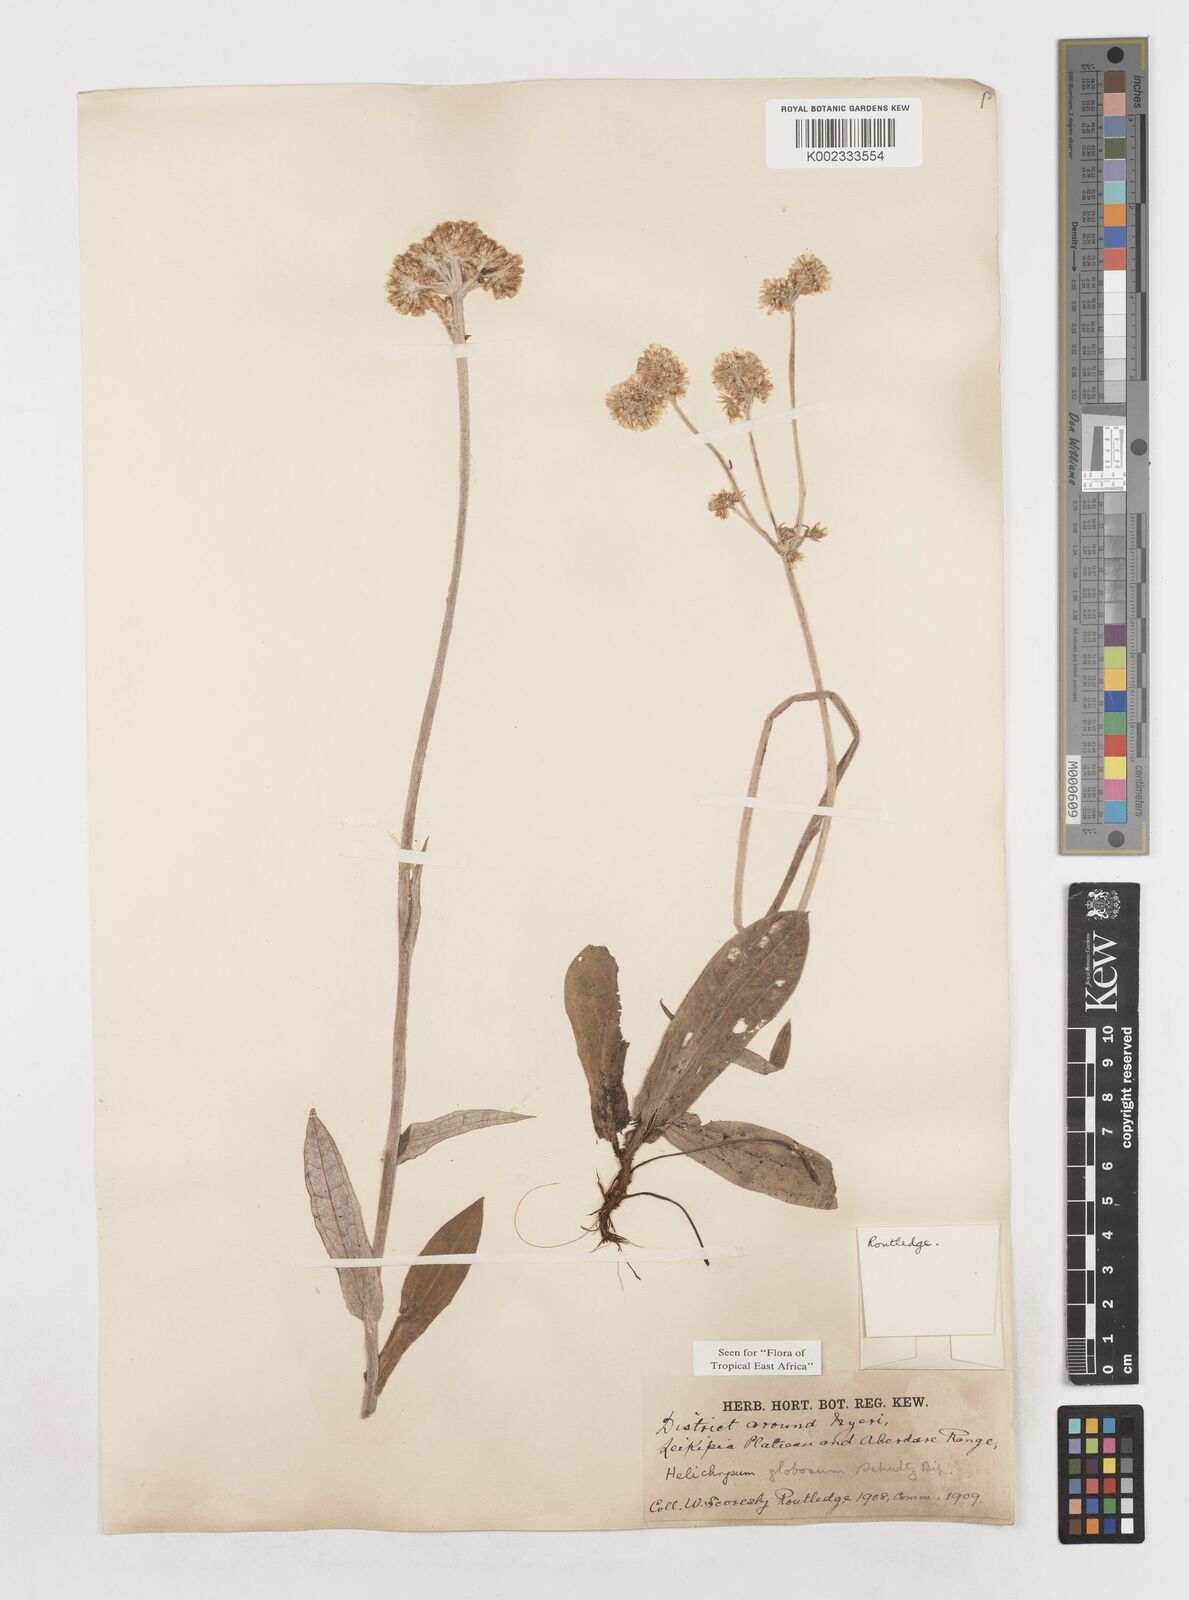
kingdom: Plantae
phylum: Tracheophyta
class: Magnoliopsida
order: Asterales
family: Asteraceae
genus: Helichrysum
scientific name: Helichrysum globosum
